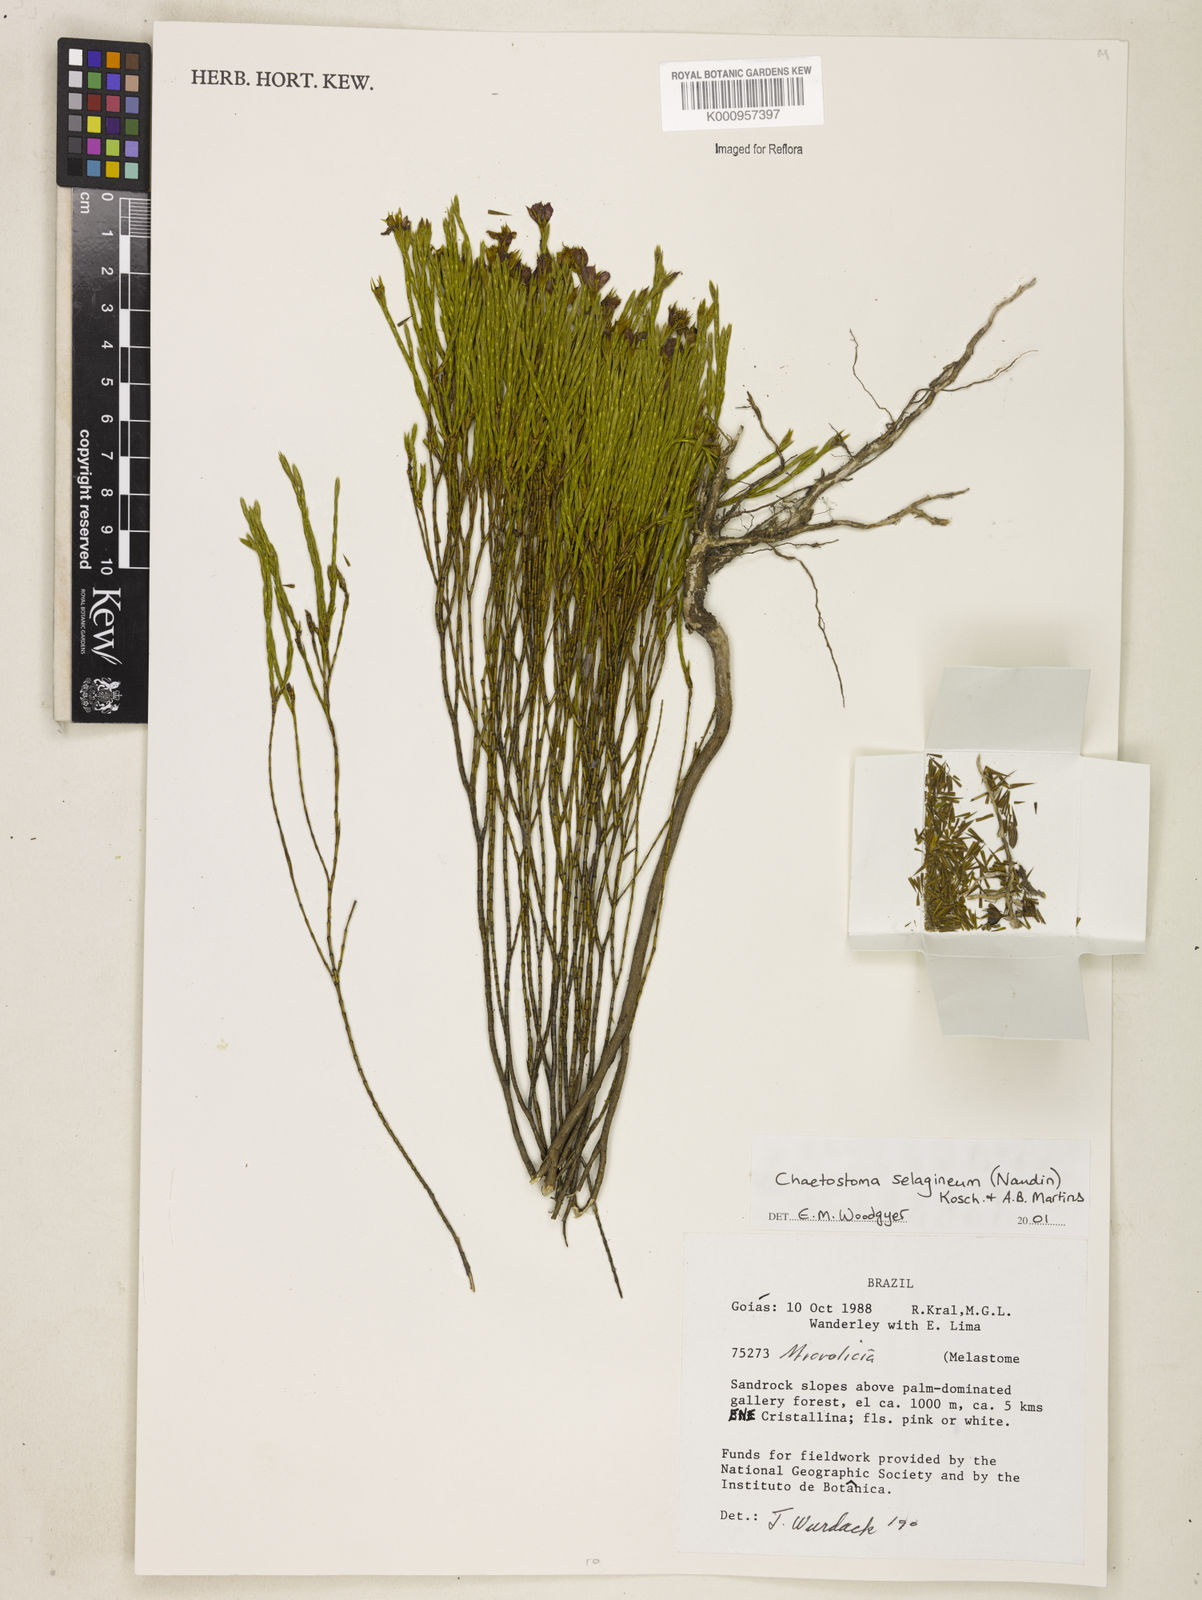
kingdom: Plantae
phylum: Tracheophyta
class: Magnoliopsida
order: Myrtales
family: Melastomataceae
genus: Microlicia
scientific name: Microlicia
